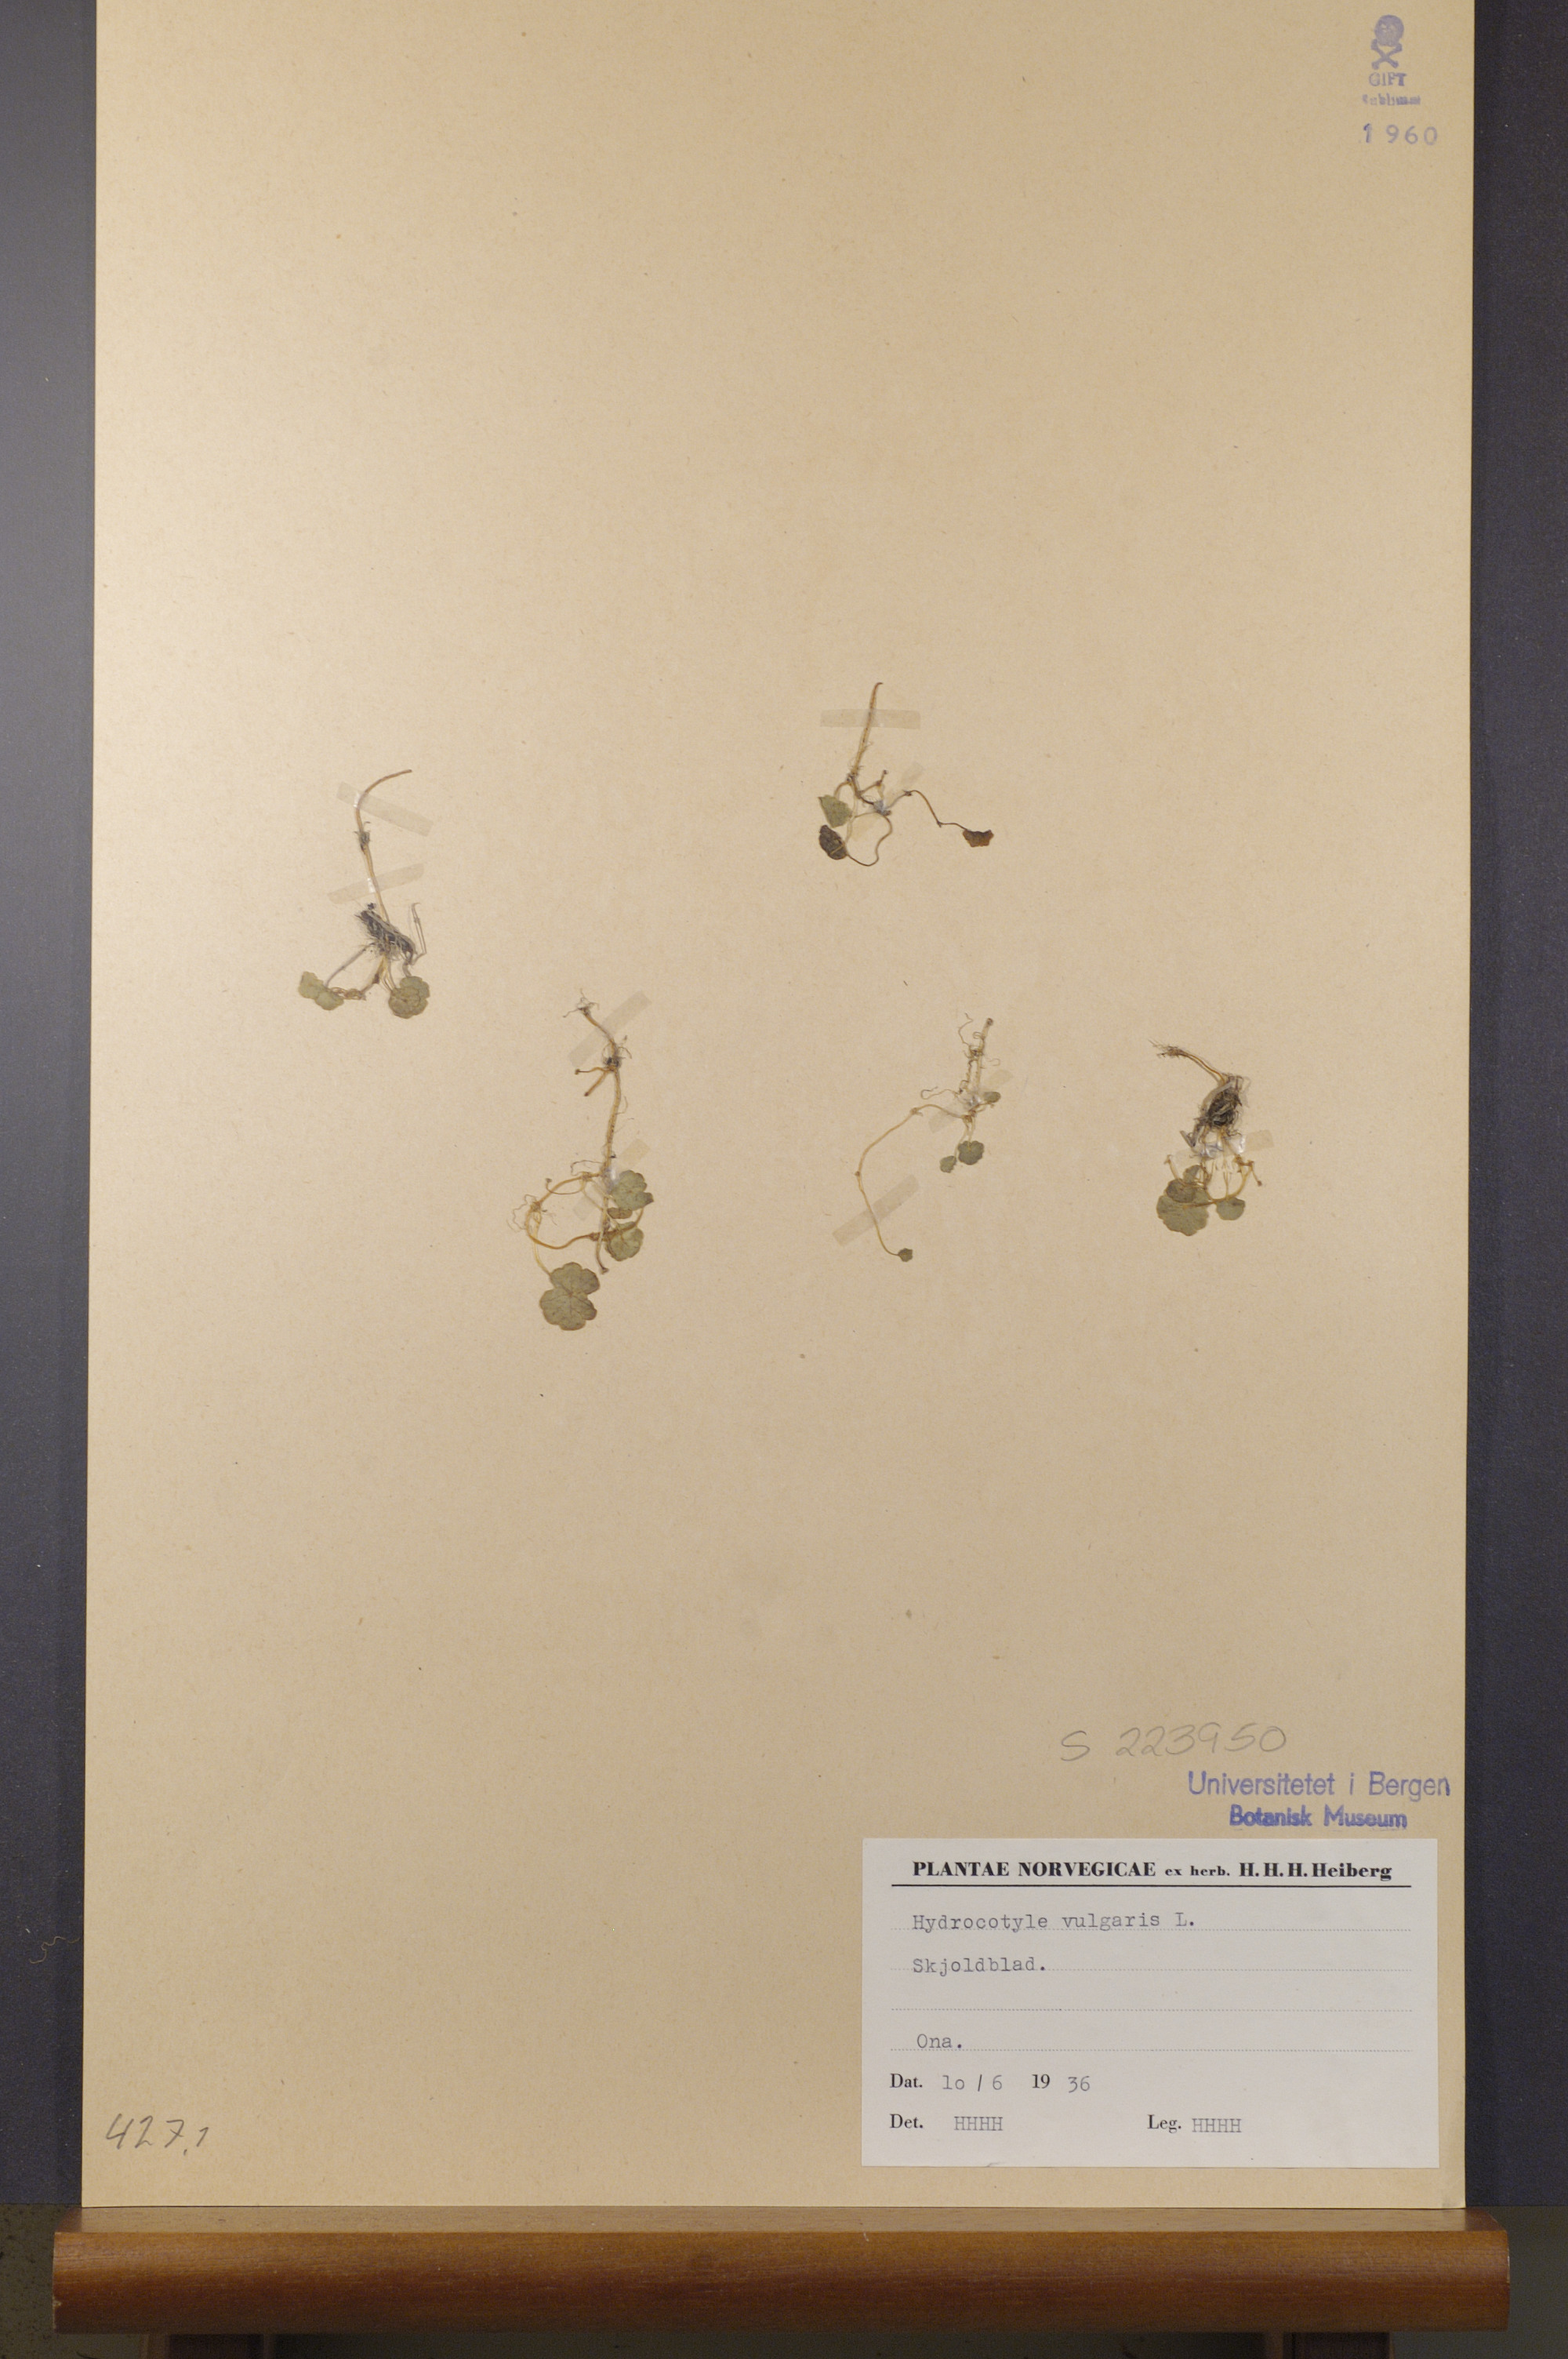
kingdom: Plantae
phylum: Tracheophyta
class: Magnoliopsida
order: Apiales
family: Araliaceae
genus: Hydrocotyle
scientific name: Hydrocotyle vulgaris
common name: Marsh pennywort
